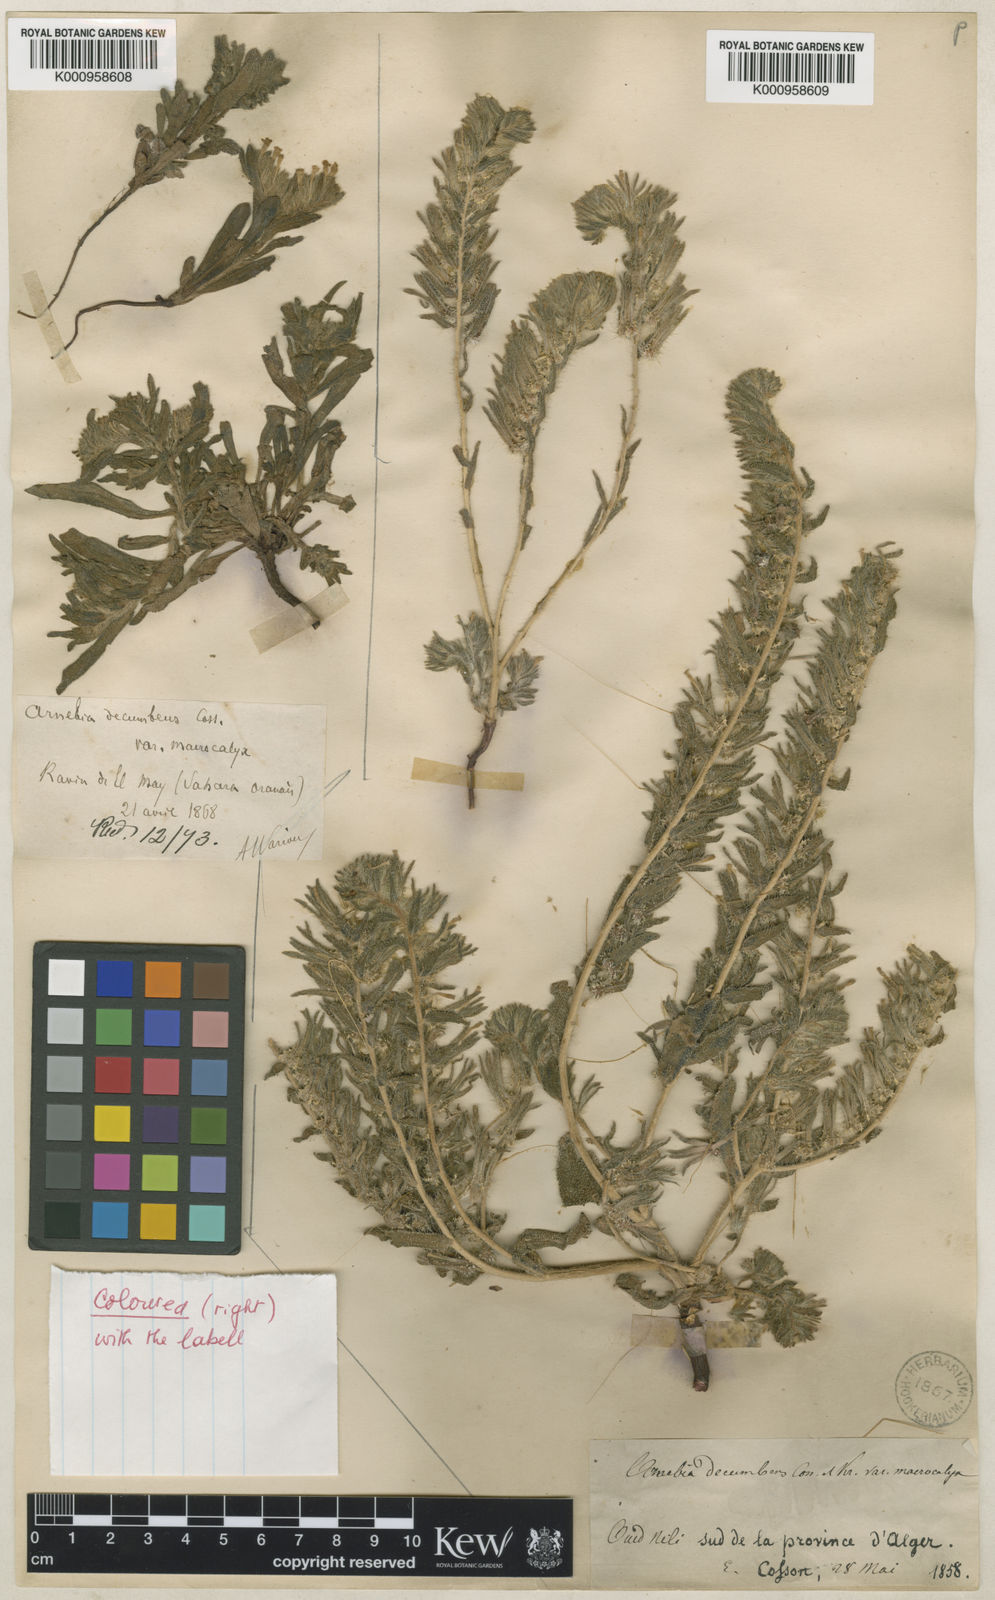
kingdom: Plantae
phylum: Tracheophyta
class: Magnoliopsida
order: Boraginales
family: Boraginaceae
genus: Arnebia
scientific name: Arnebia decumbens
